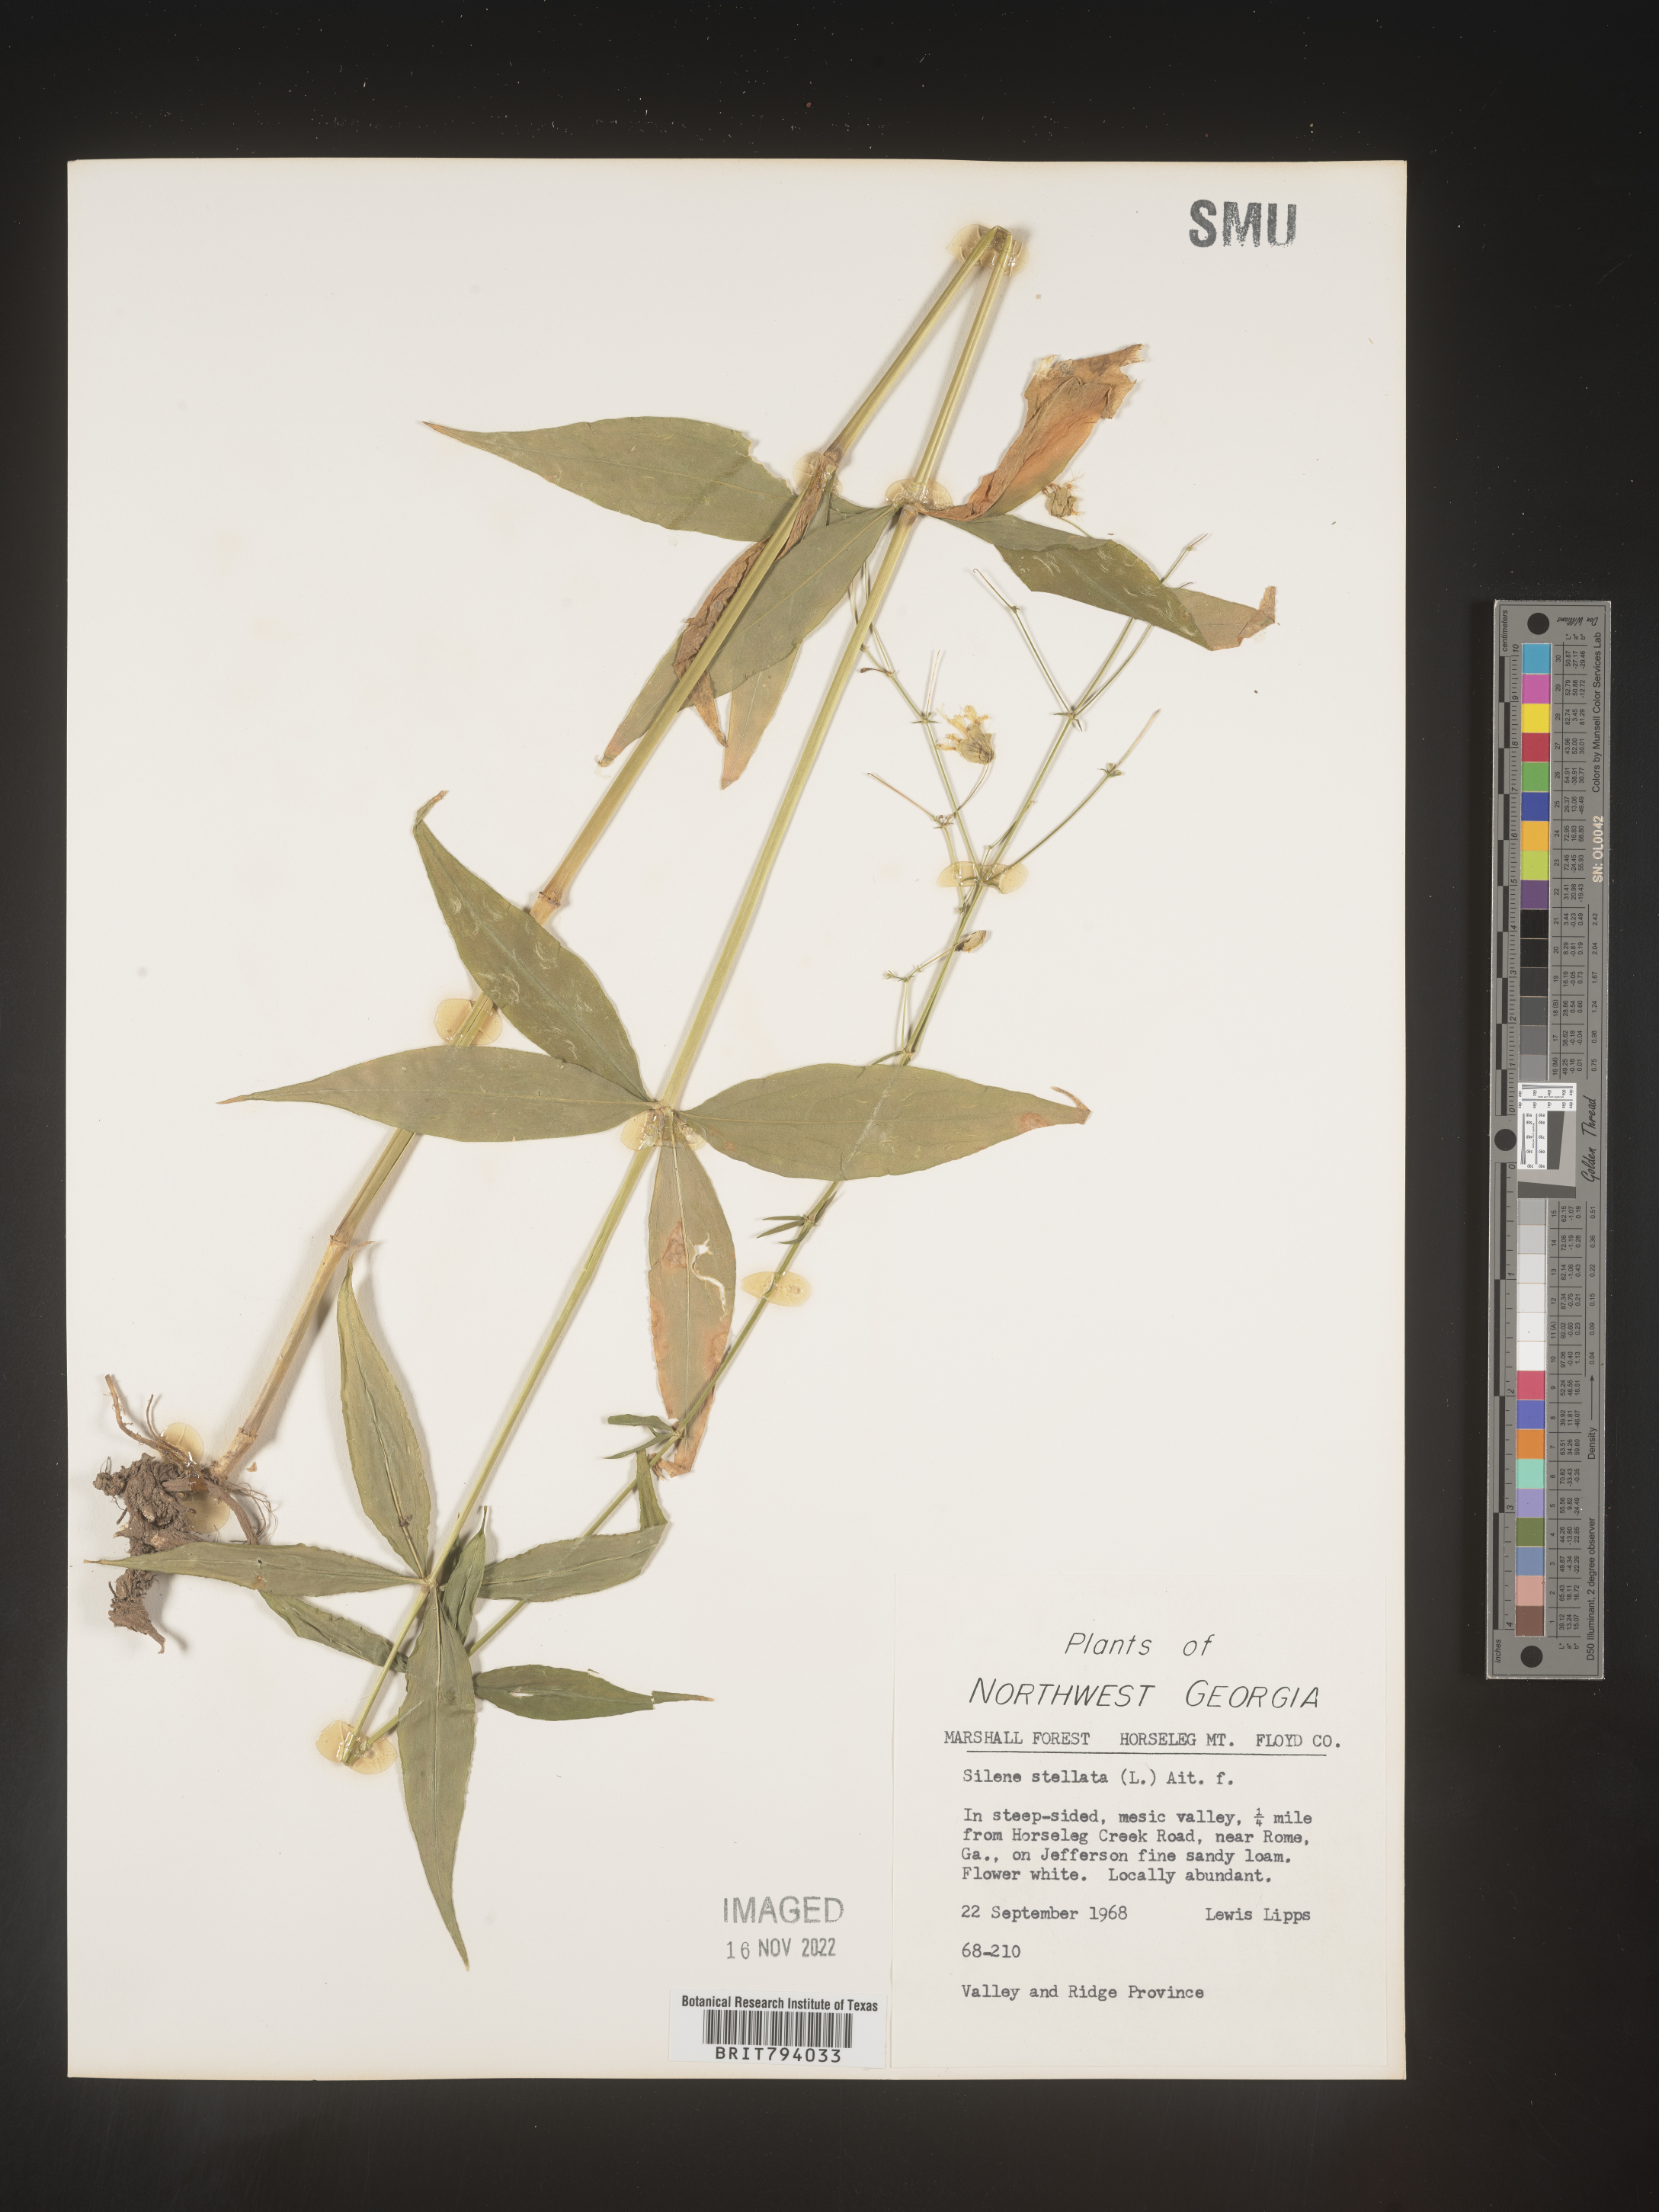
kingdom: Plantae
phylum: Tracheophyta
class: Magnoliopsida
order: Caryophyllales
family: Caryophyllaceae
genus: Silene
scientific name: Silene stellata
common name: Starry campion
